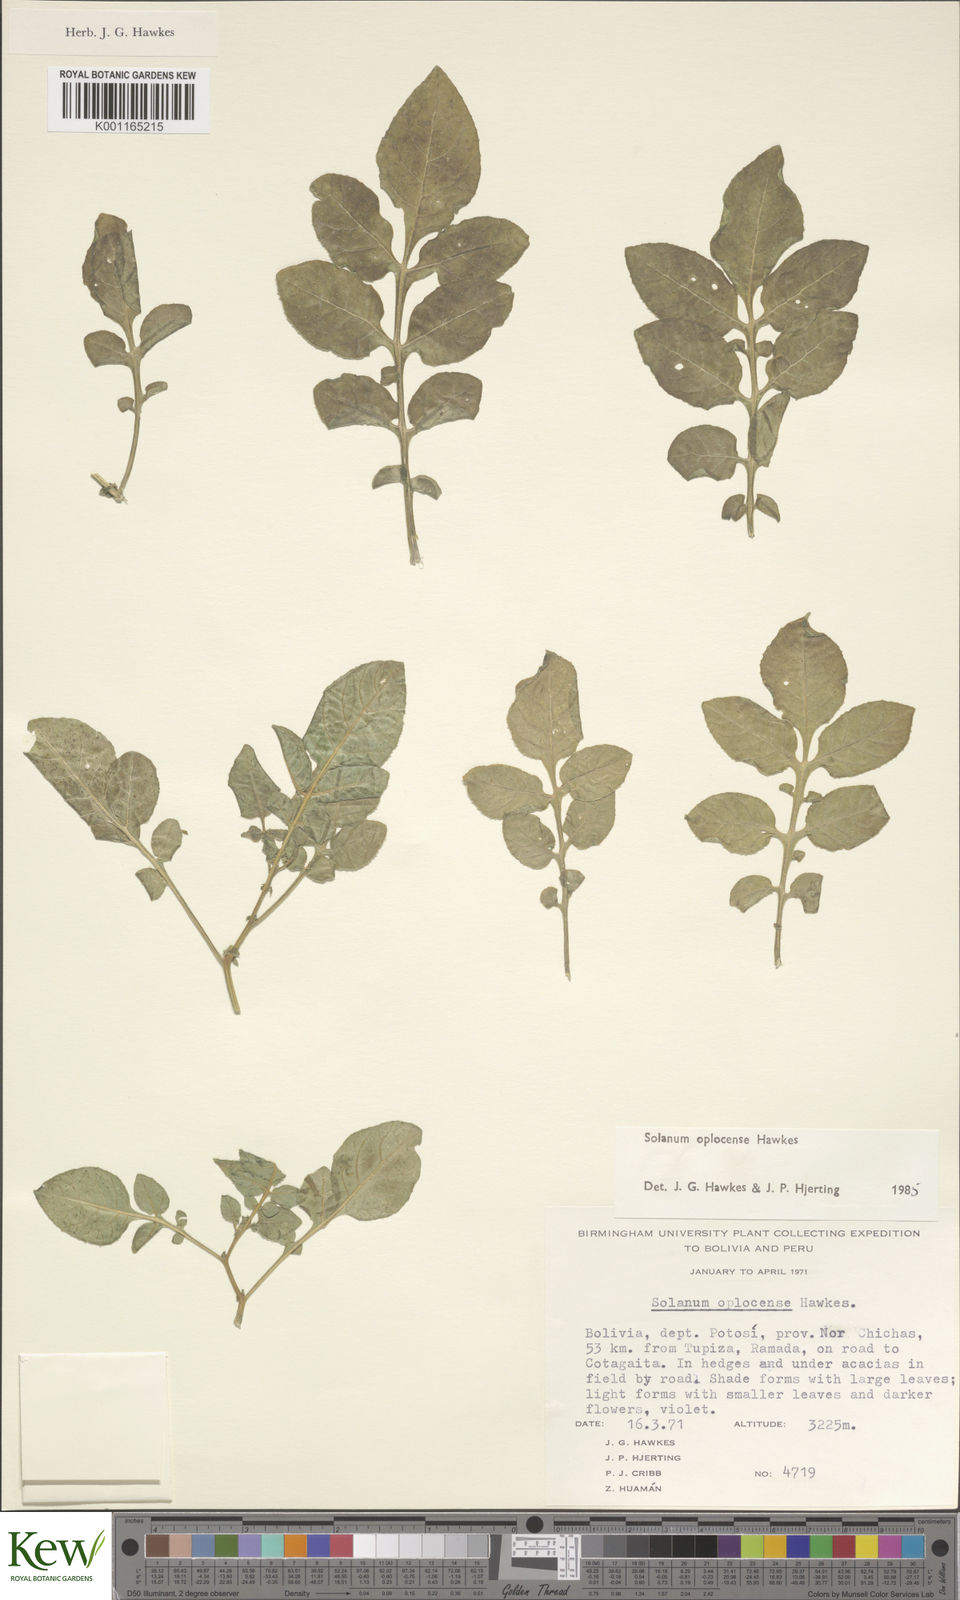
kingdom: Plantae
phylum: Tracheophyta
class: Magnoliopsida
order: Solanales
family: Solanaceae
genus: Solanum
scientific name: Solanum brevicaule
